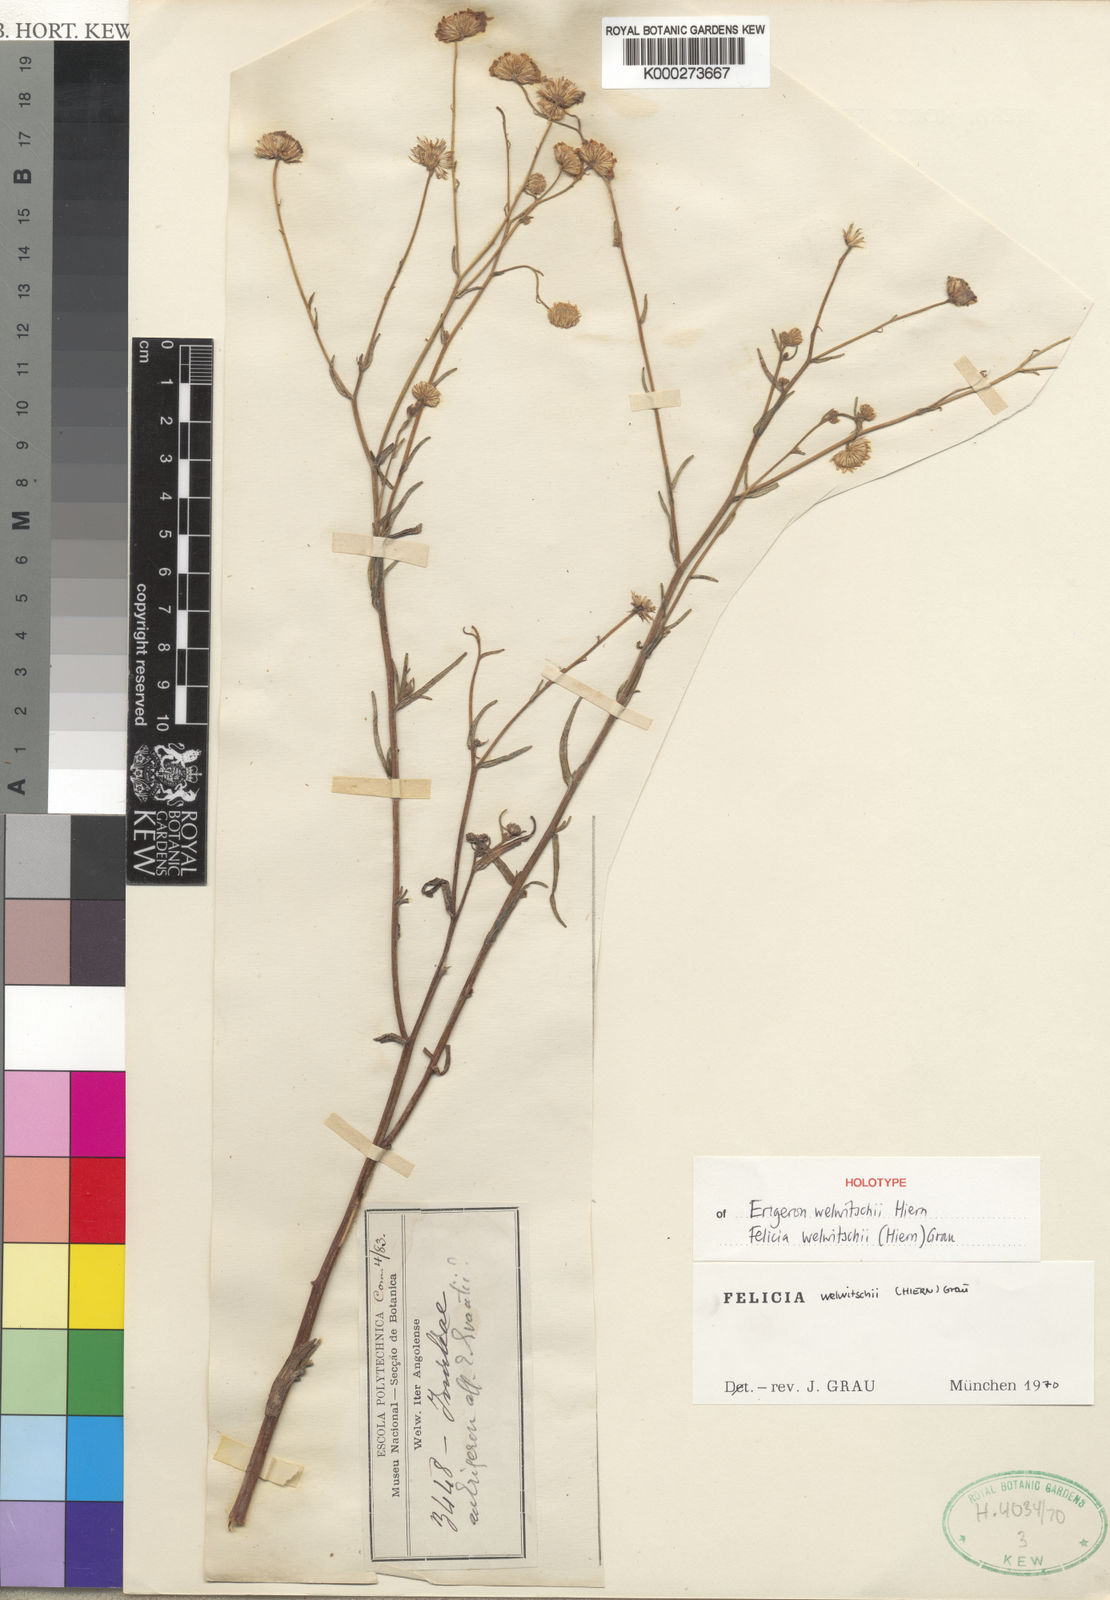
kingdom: Plantae
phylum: Tracheophyta
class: Magnoliopsida
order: Asterales
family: Asteraceae
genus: Felicia
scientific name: Felicia welwitschii
